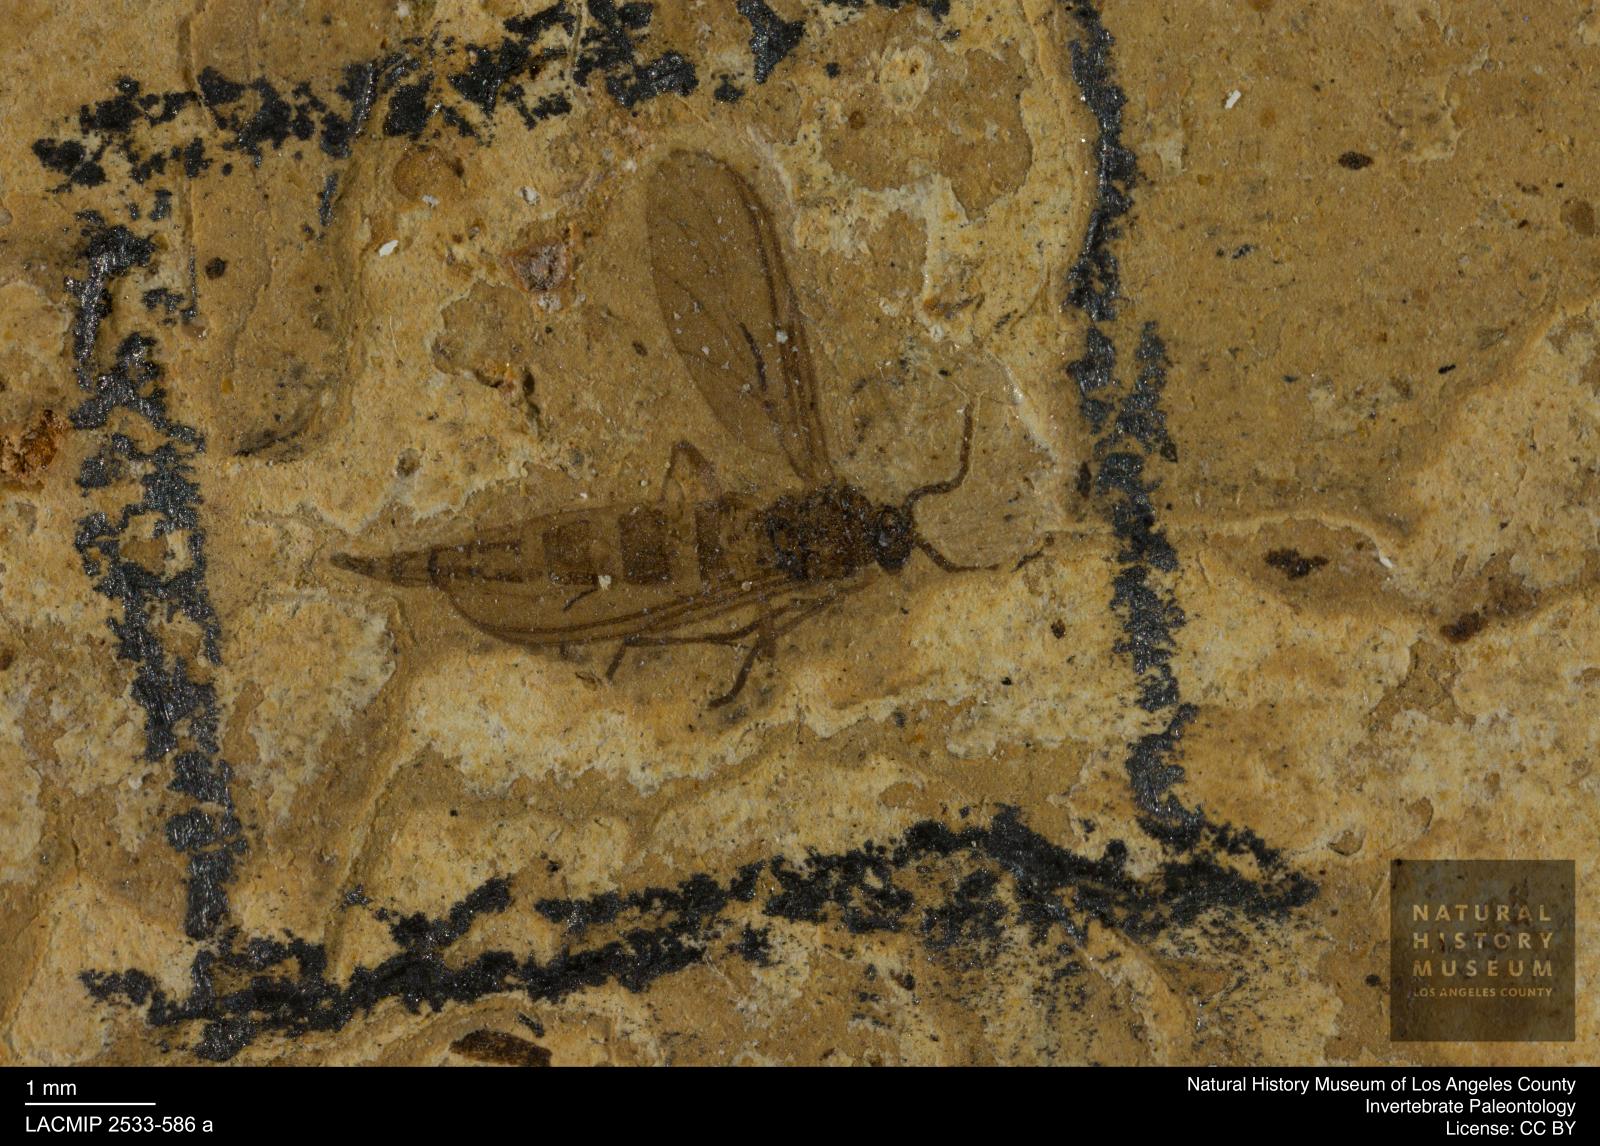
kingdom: Animalia
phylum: Arthropoda
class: Insecta
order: Diptera
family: Sciaridae
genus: Sciara
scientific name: Sciara laticornis
